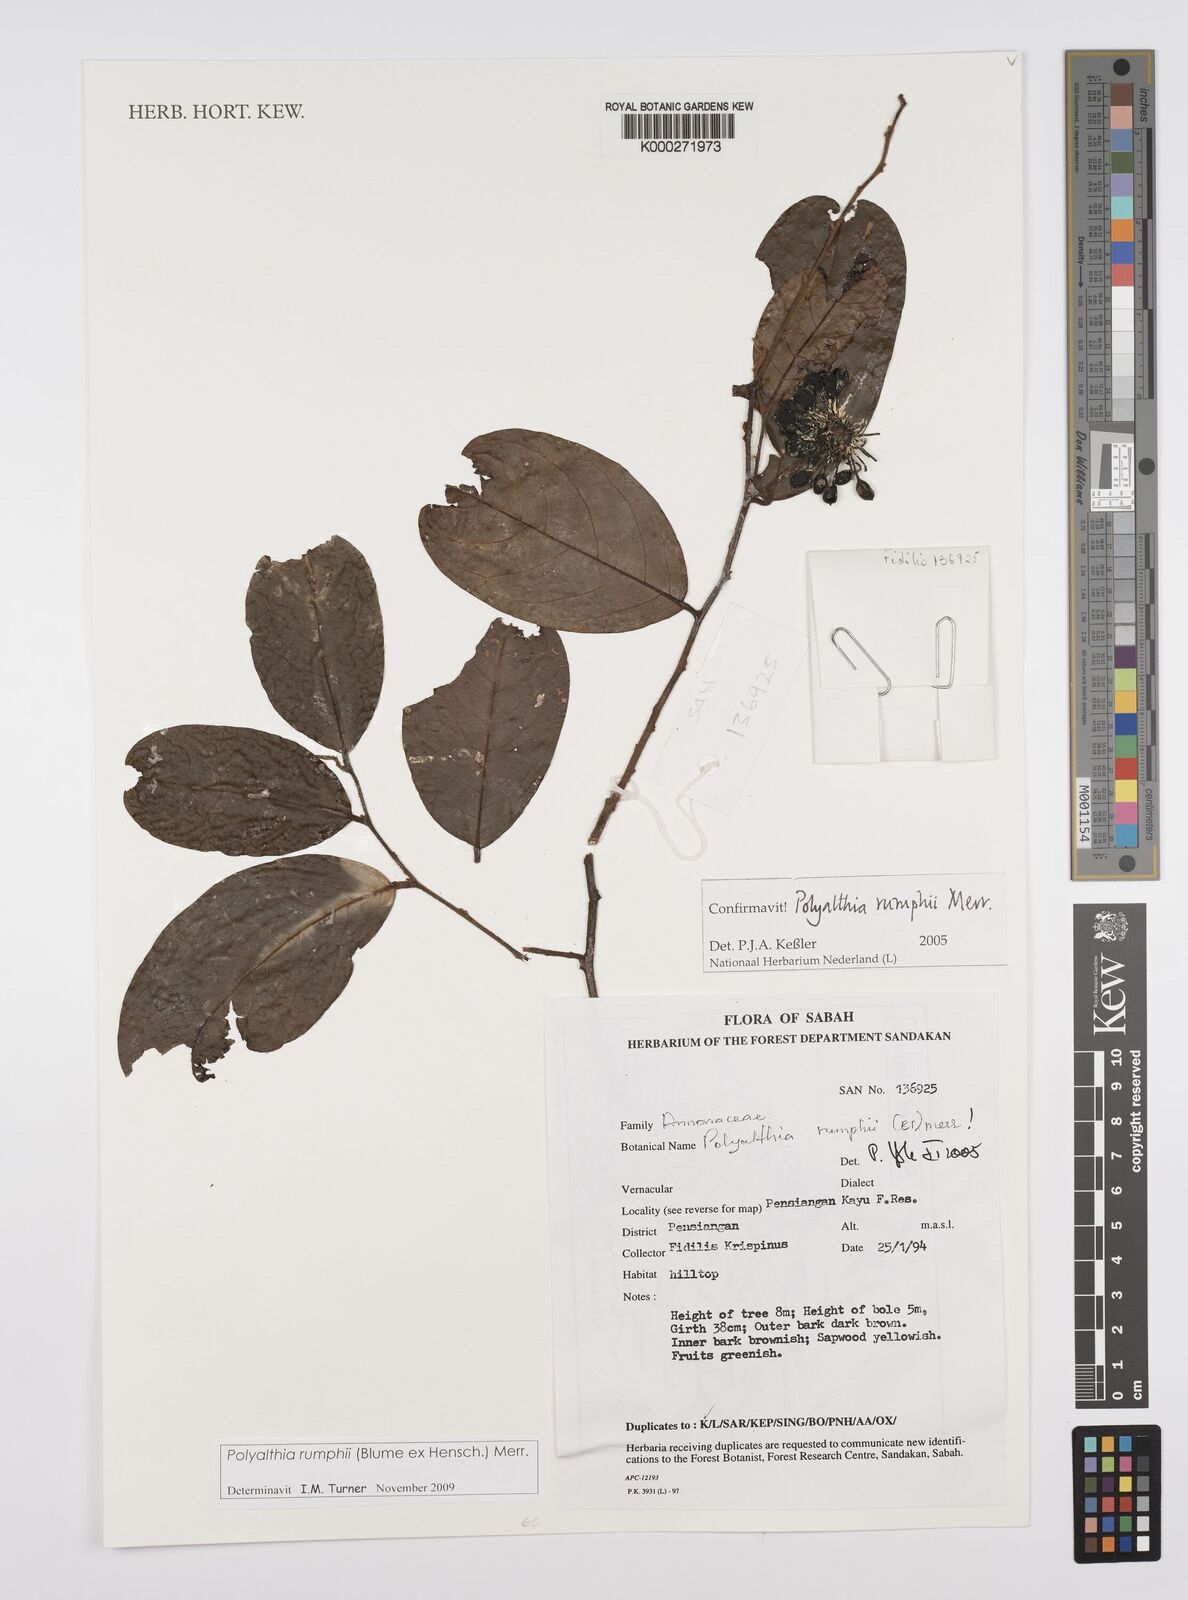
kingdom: Plantae
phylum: Tracheophyta
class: Magnoliopsida
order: Magnoliales
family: Annonaceae
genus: Hubera
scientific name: Hubera rumphii
